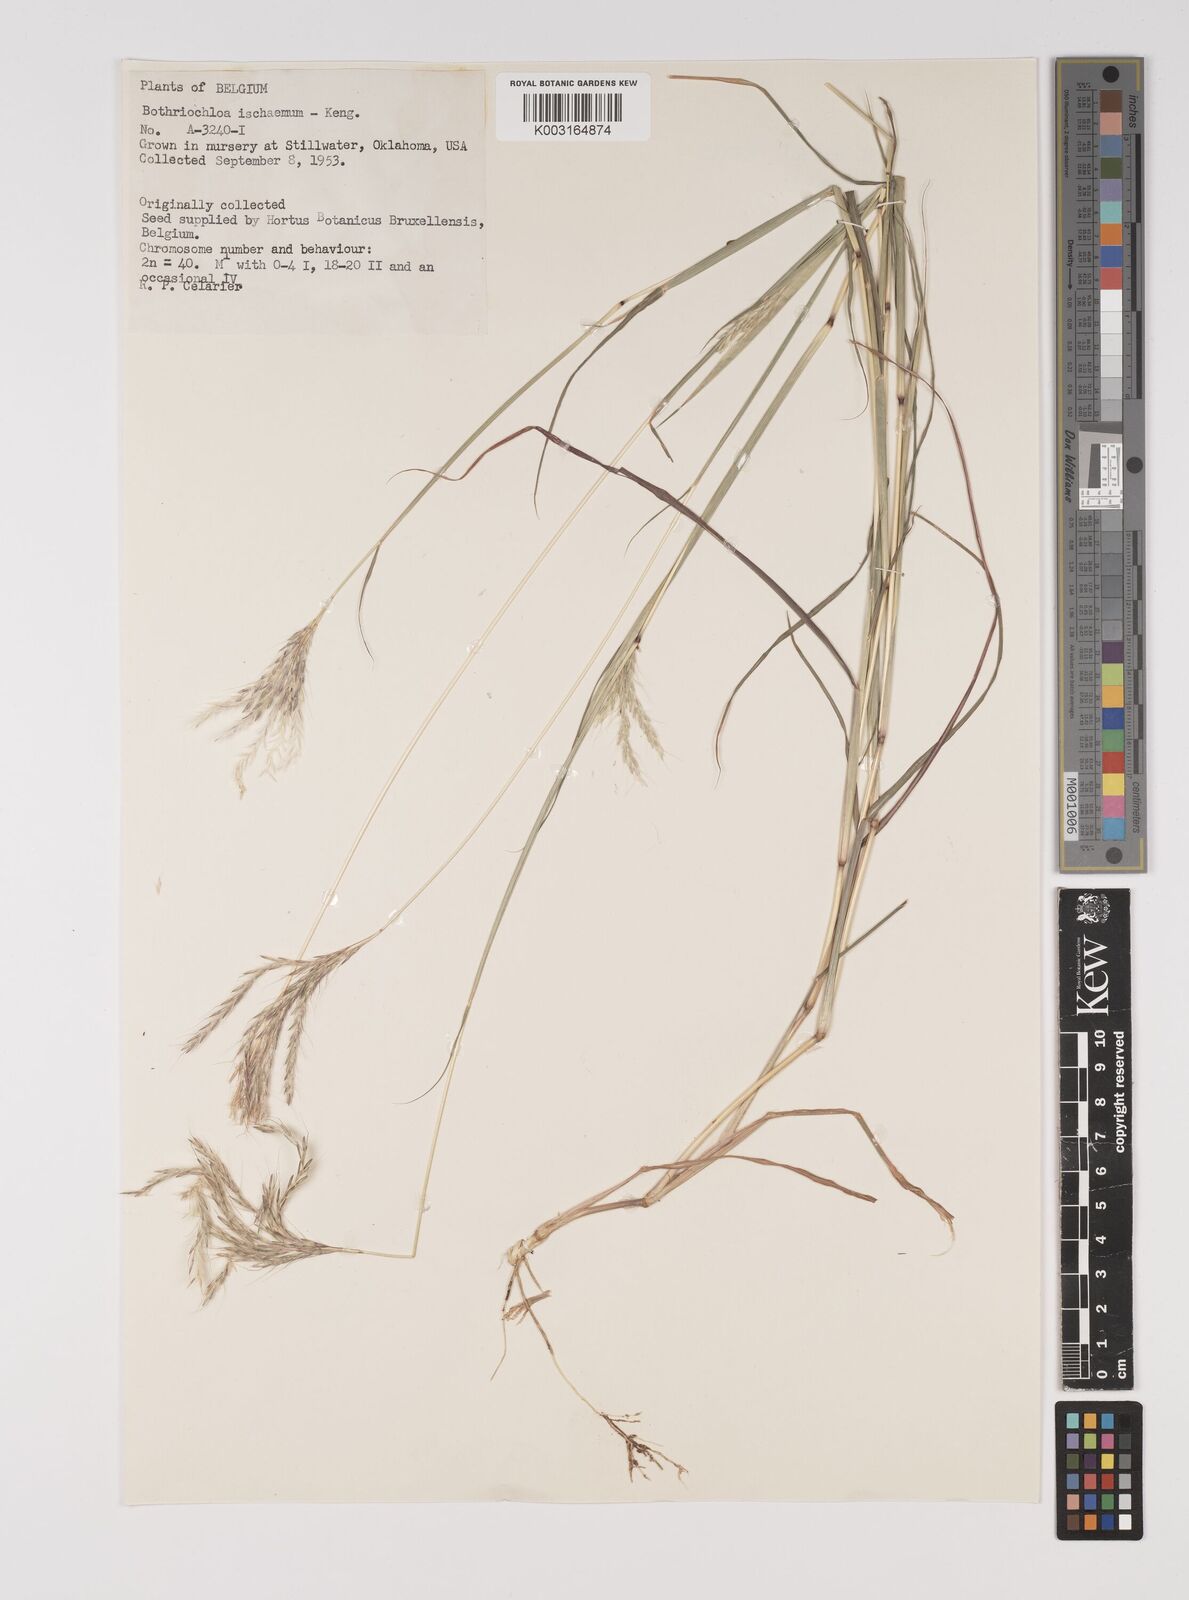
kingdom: Plantae
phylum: Tracheophyta
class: Liliopsida
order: Poales
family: Poaceae
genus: Bothriochloa
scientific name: Bothriochloa ischaemum
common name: Yellow bluestem
